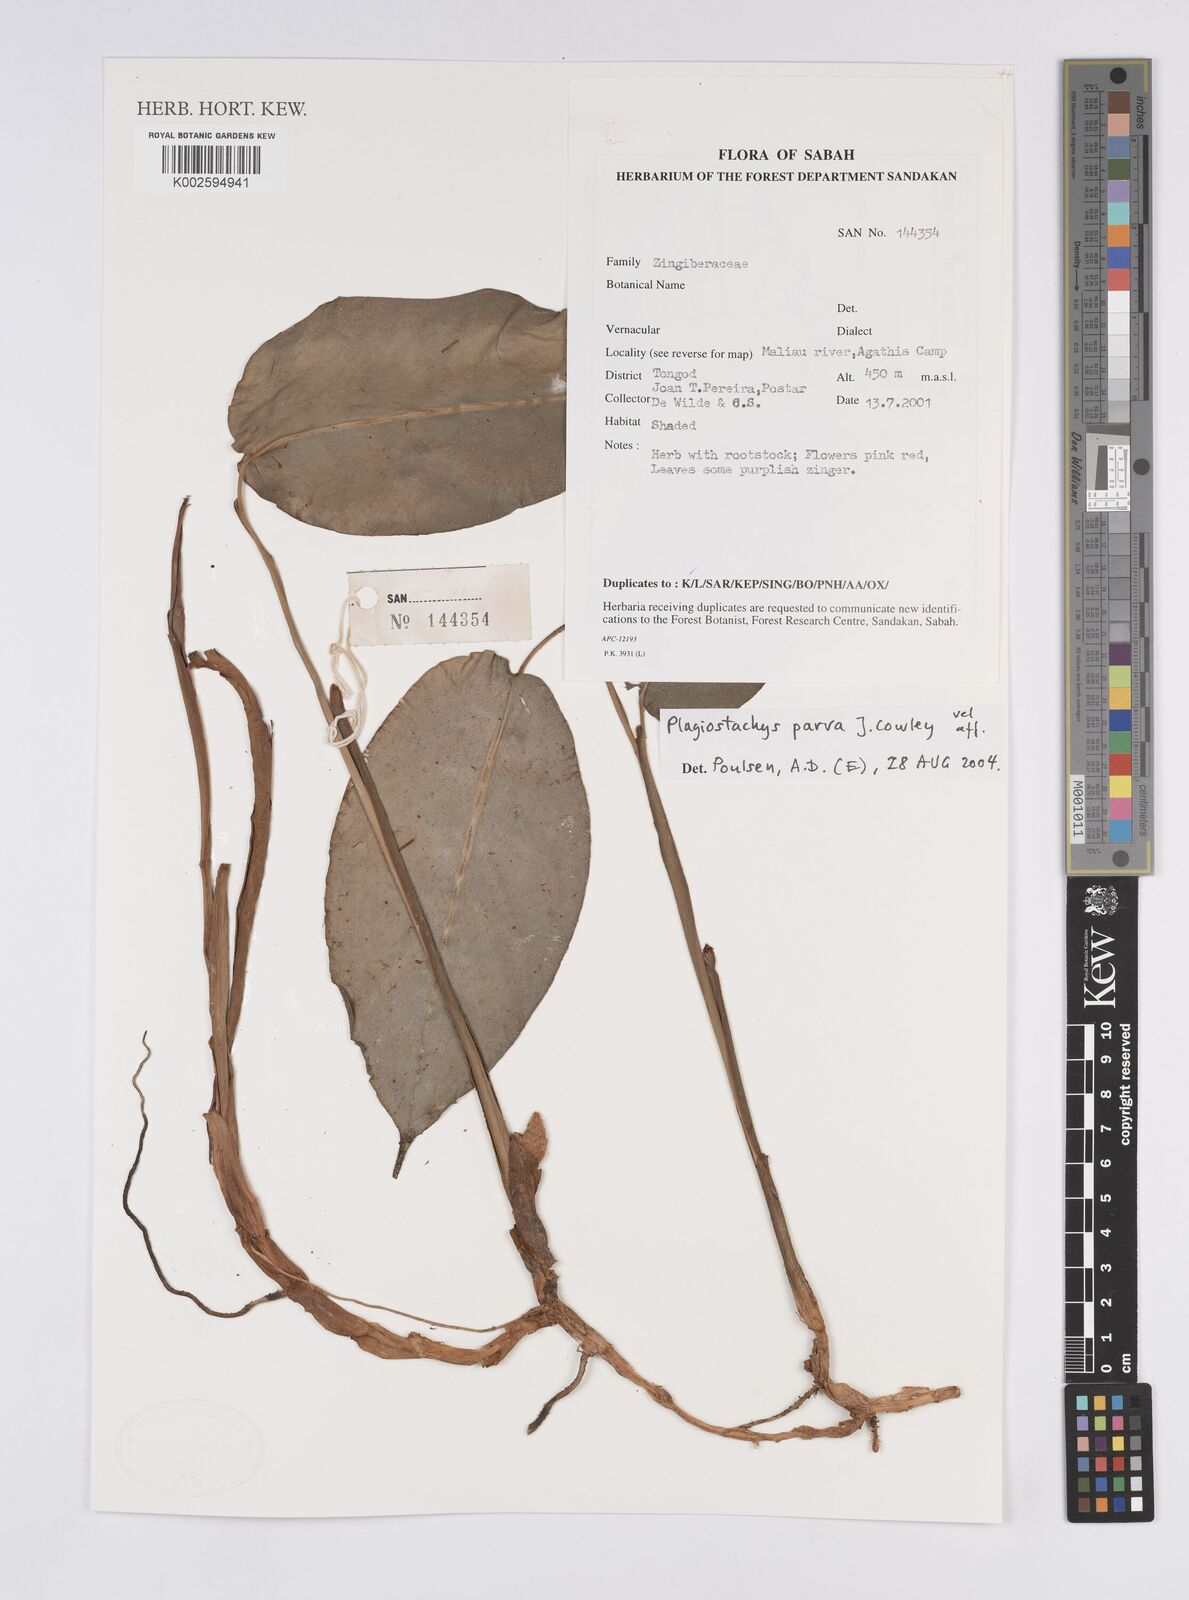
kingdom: Plantae
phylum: Tracheophyta
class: Liliopsida
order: Zingiberales
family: Zingiberaceae
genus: Plagiostachys
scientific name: Plagiostachys parva
